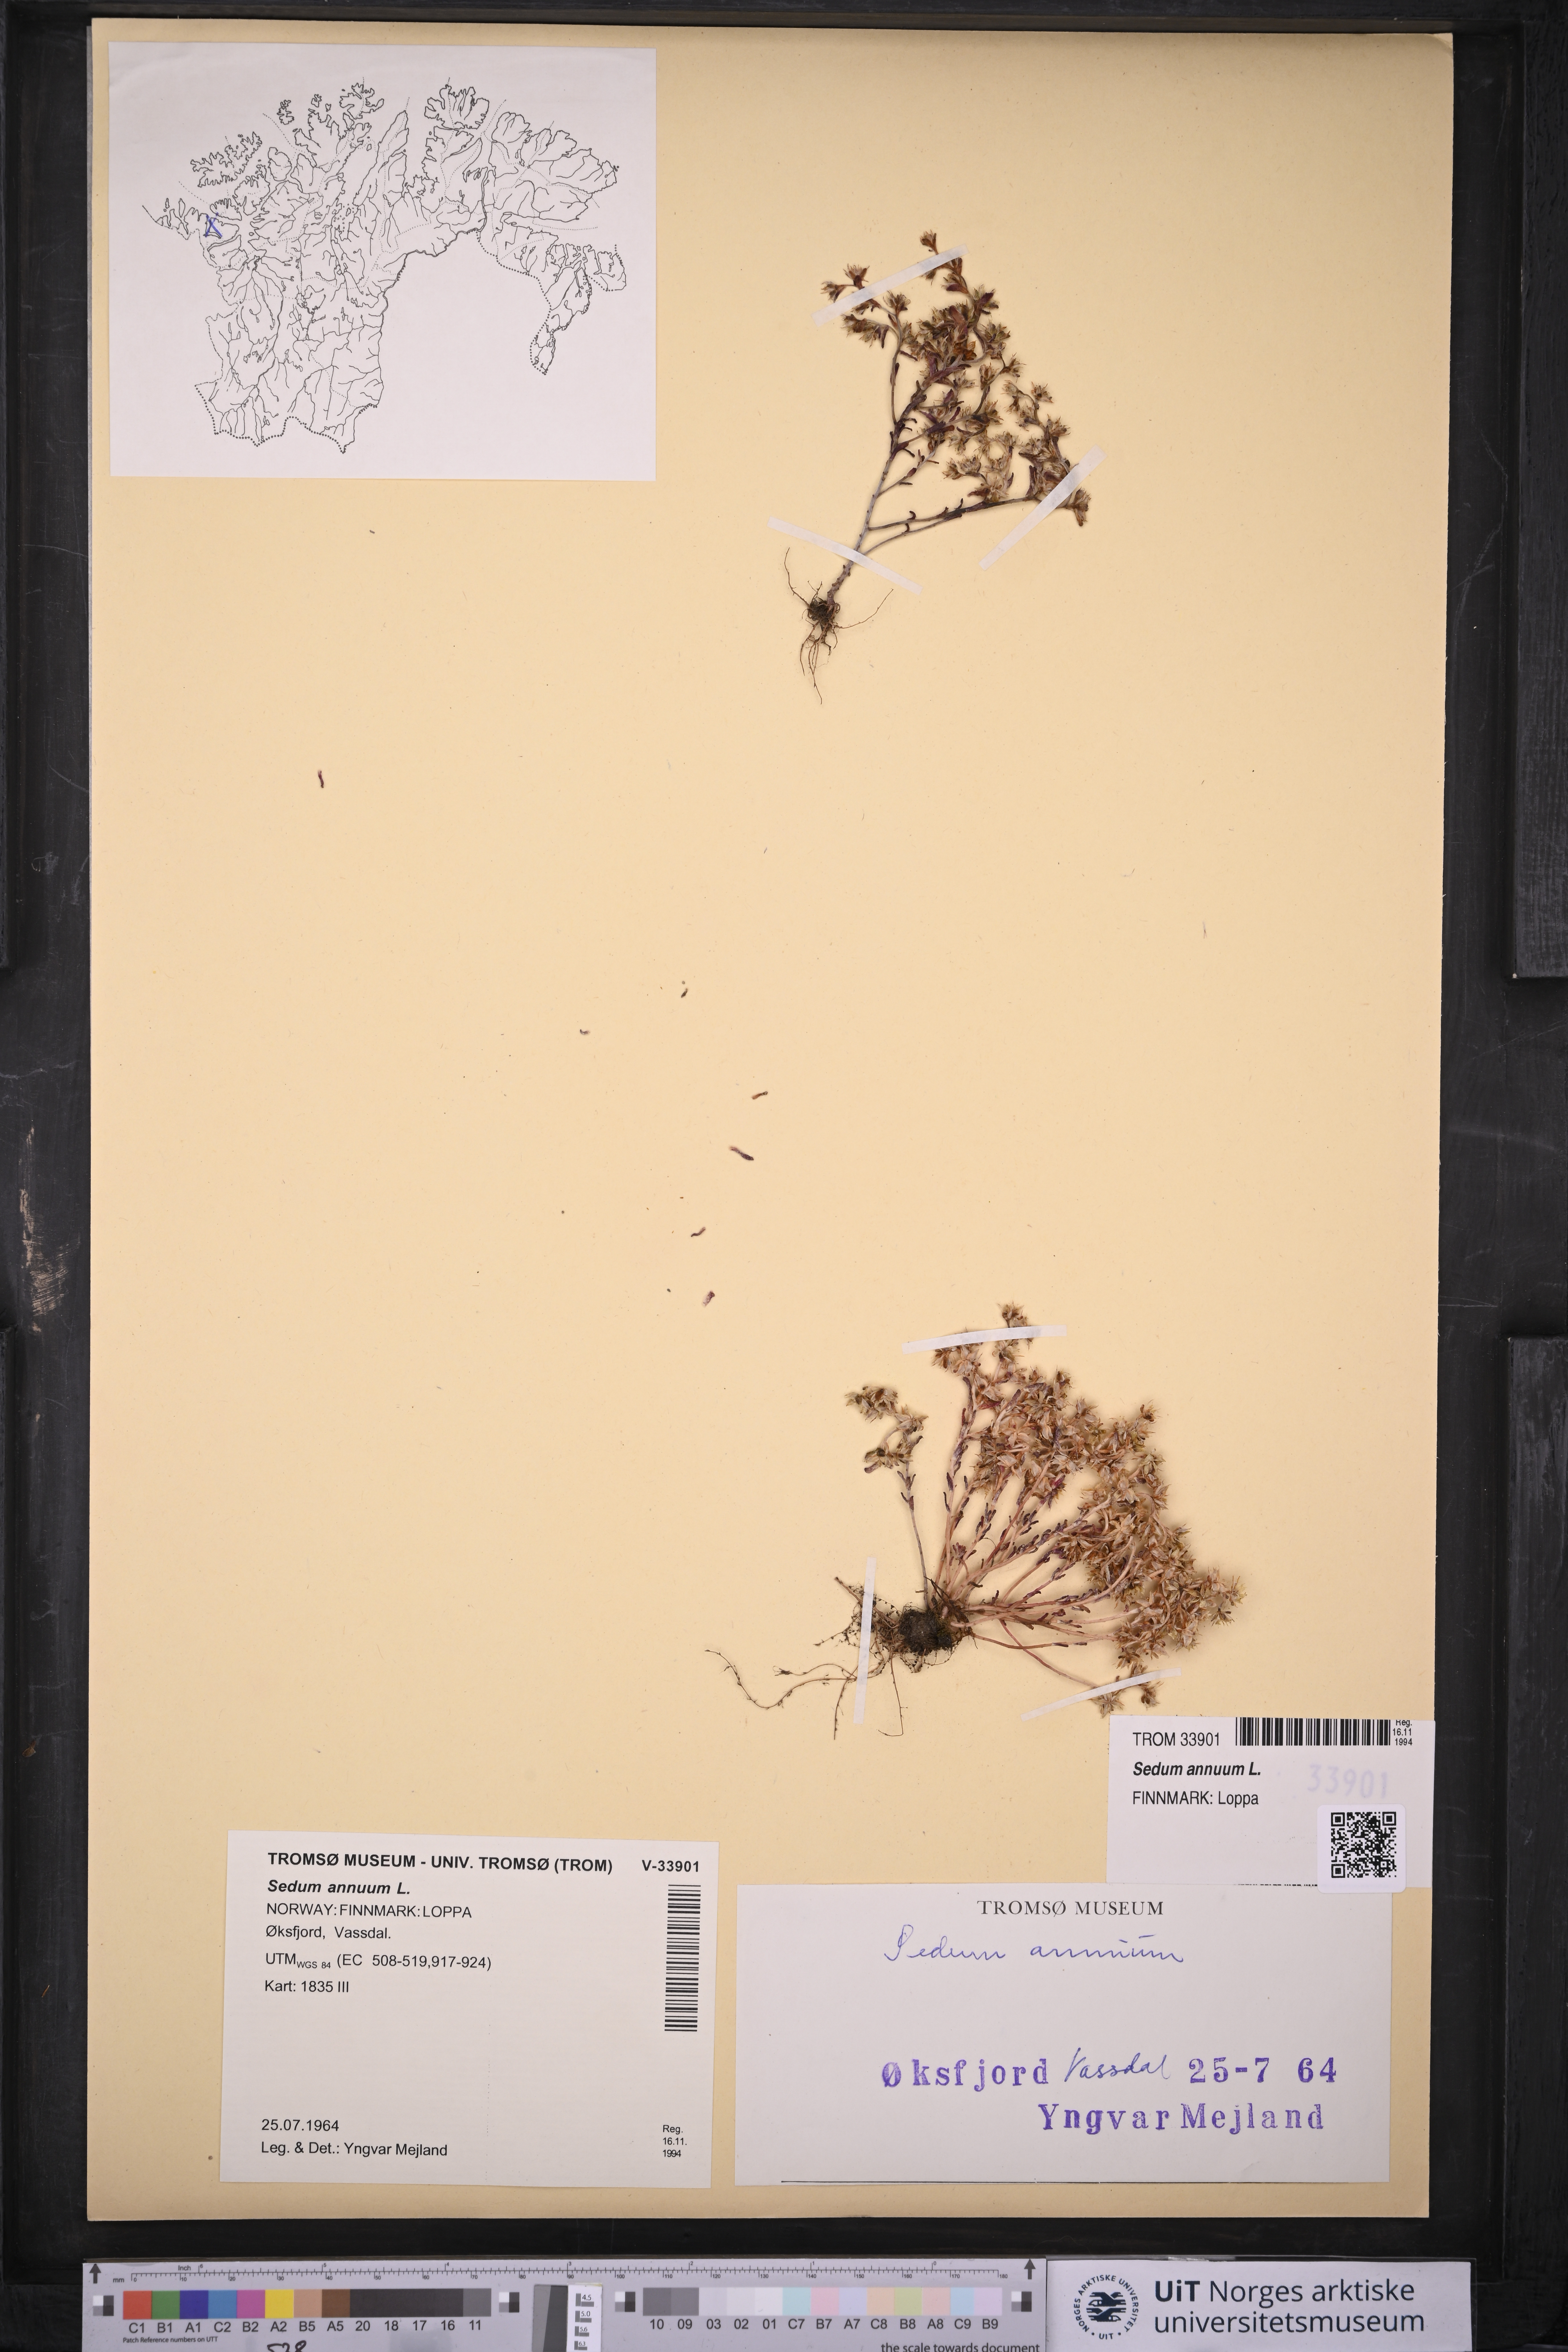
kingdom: Plantae
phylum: Tracheophyta
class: Magnoliopsida
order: Saxifragales
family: Crassulaceae
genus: Sedum
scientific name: Sedum annuum
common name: Annual stonecrop
